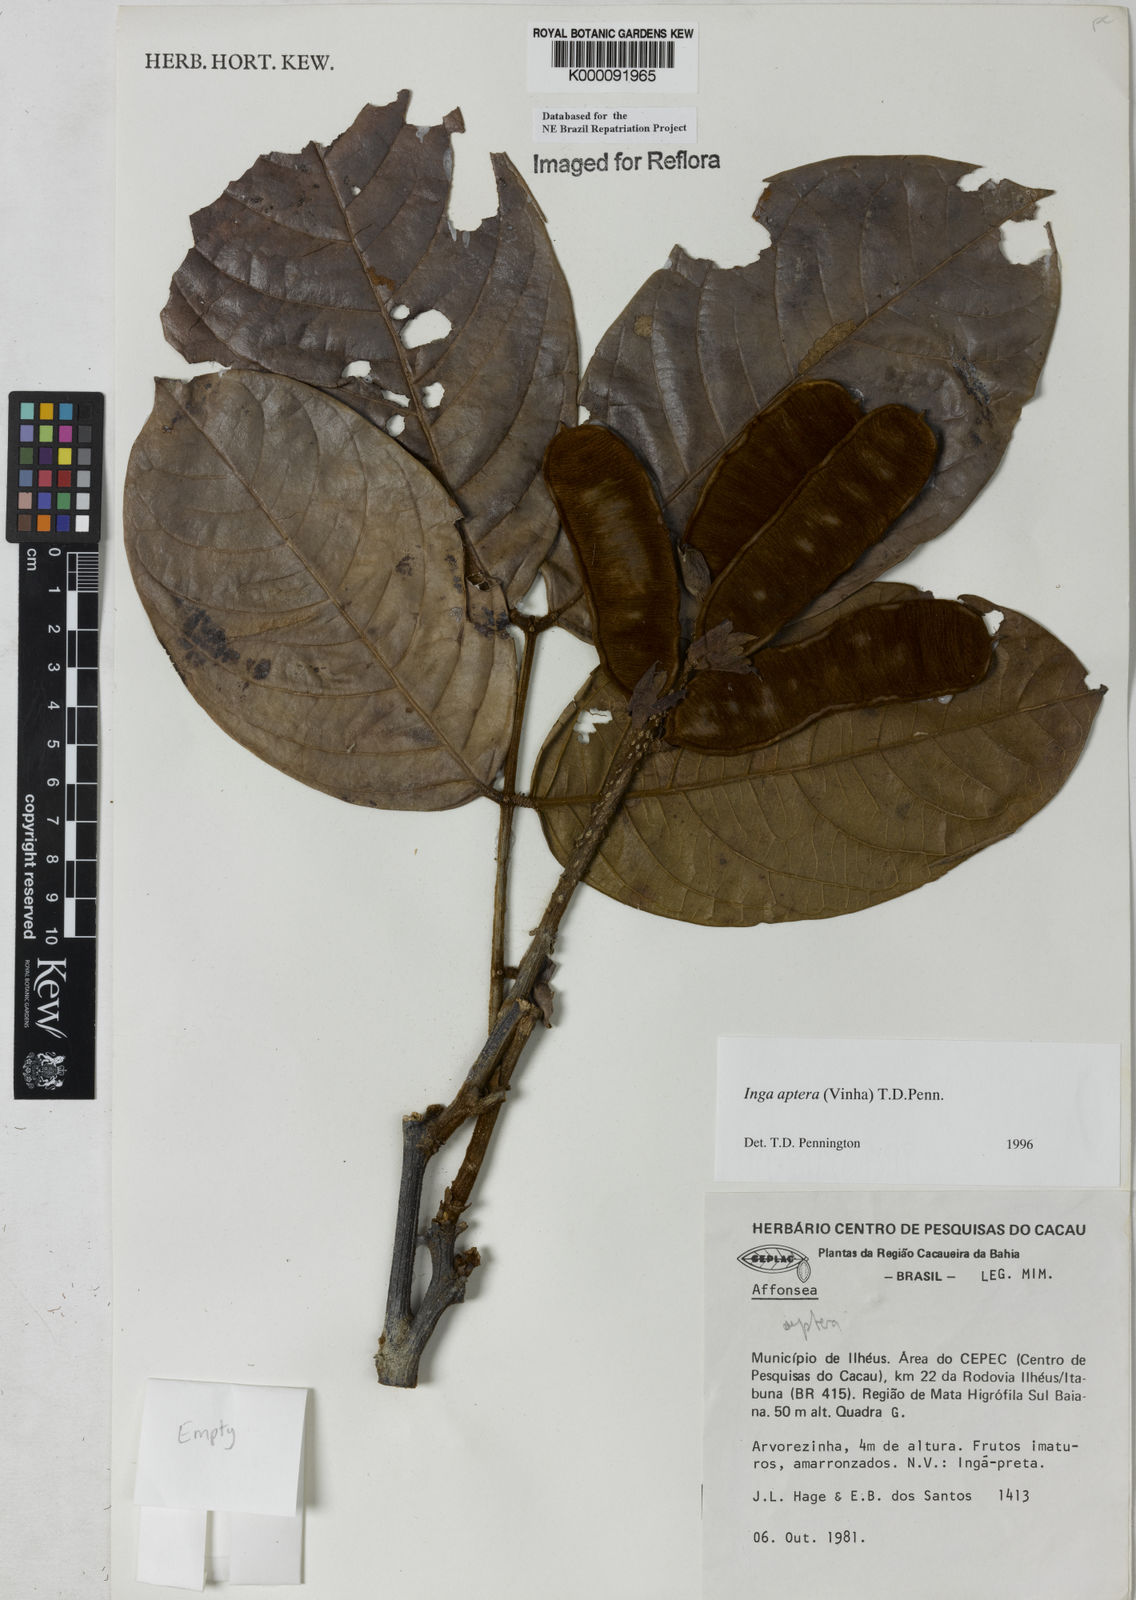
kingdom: Plantae
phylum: Tracheophyta
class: Magnoliopsida
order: Fabales
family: Fabaceae
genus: Inga
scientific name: Inga aptera
